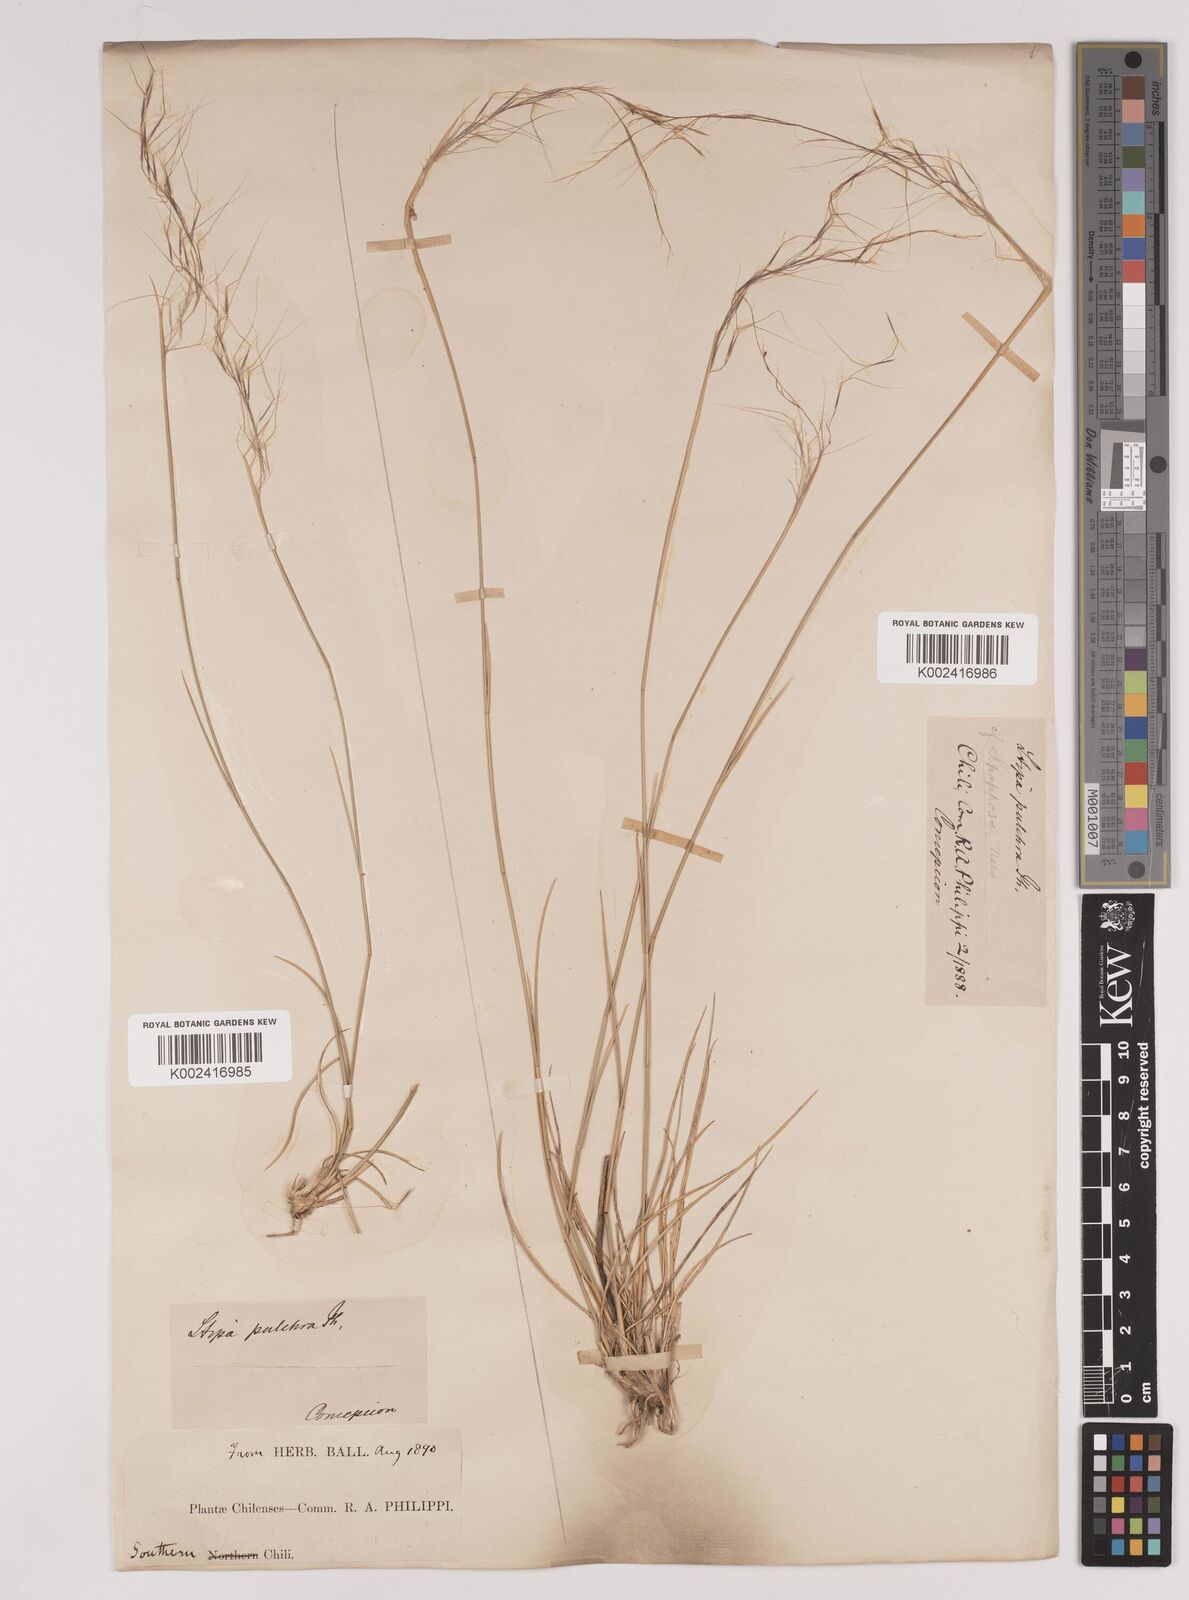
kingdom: Plantae
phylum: Tracheophyta
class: Liliopsida
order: Poales
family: Poaceae
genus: Jarava
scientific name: Jarava plumosa
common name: South american rice grass
